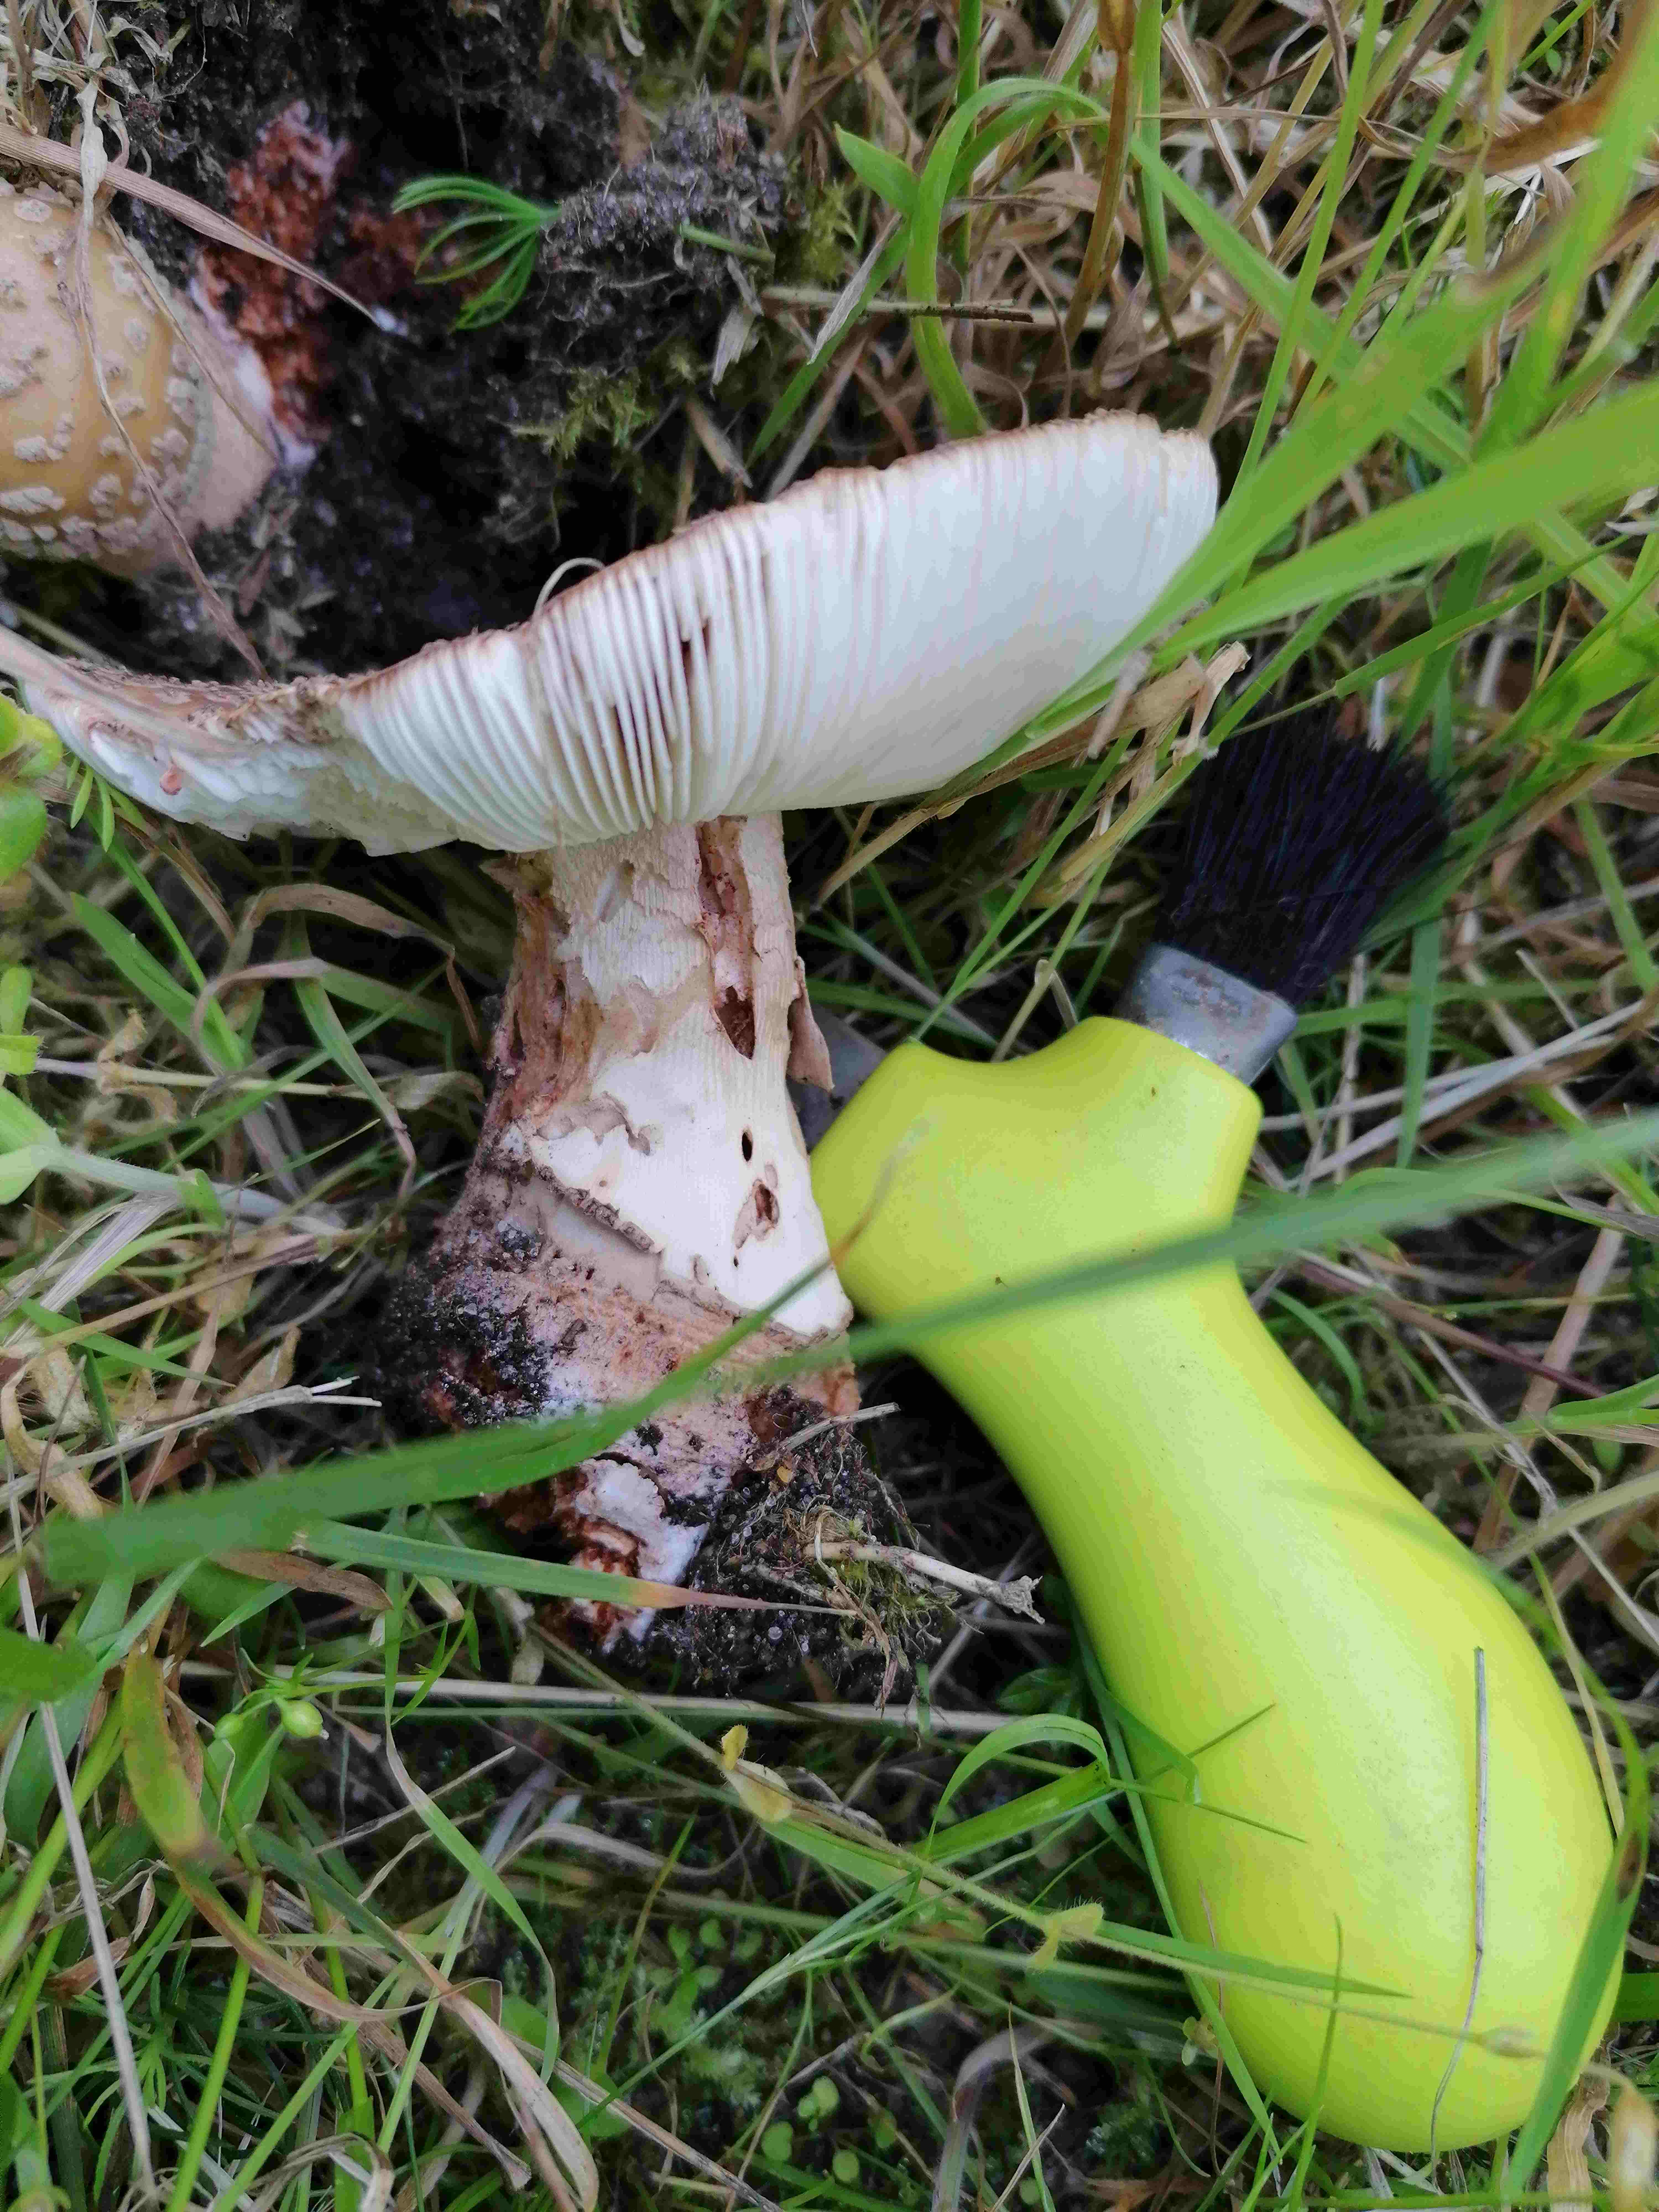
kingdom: Fungi
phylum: Basidiomycota
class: Agaricomycetes
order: Agaricales
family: Amanitaceae
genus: Amanita
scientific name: Amanita rubescens
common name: rødmende fluesvamp
